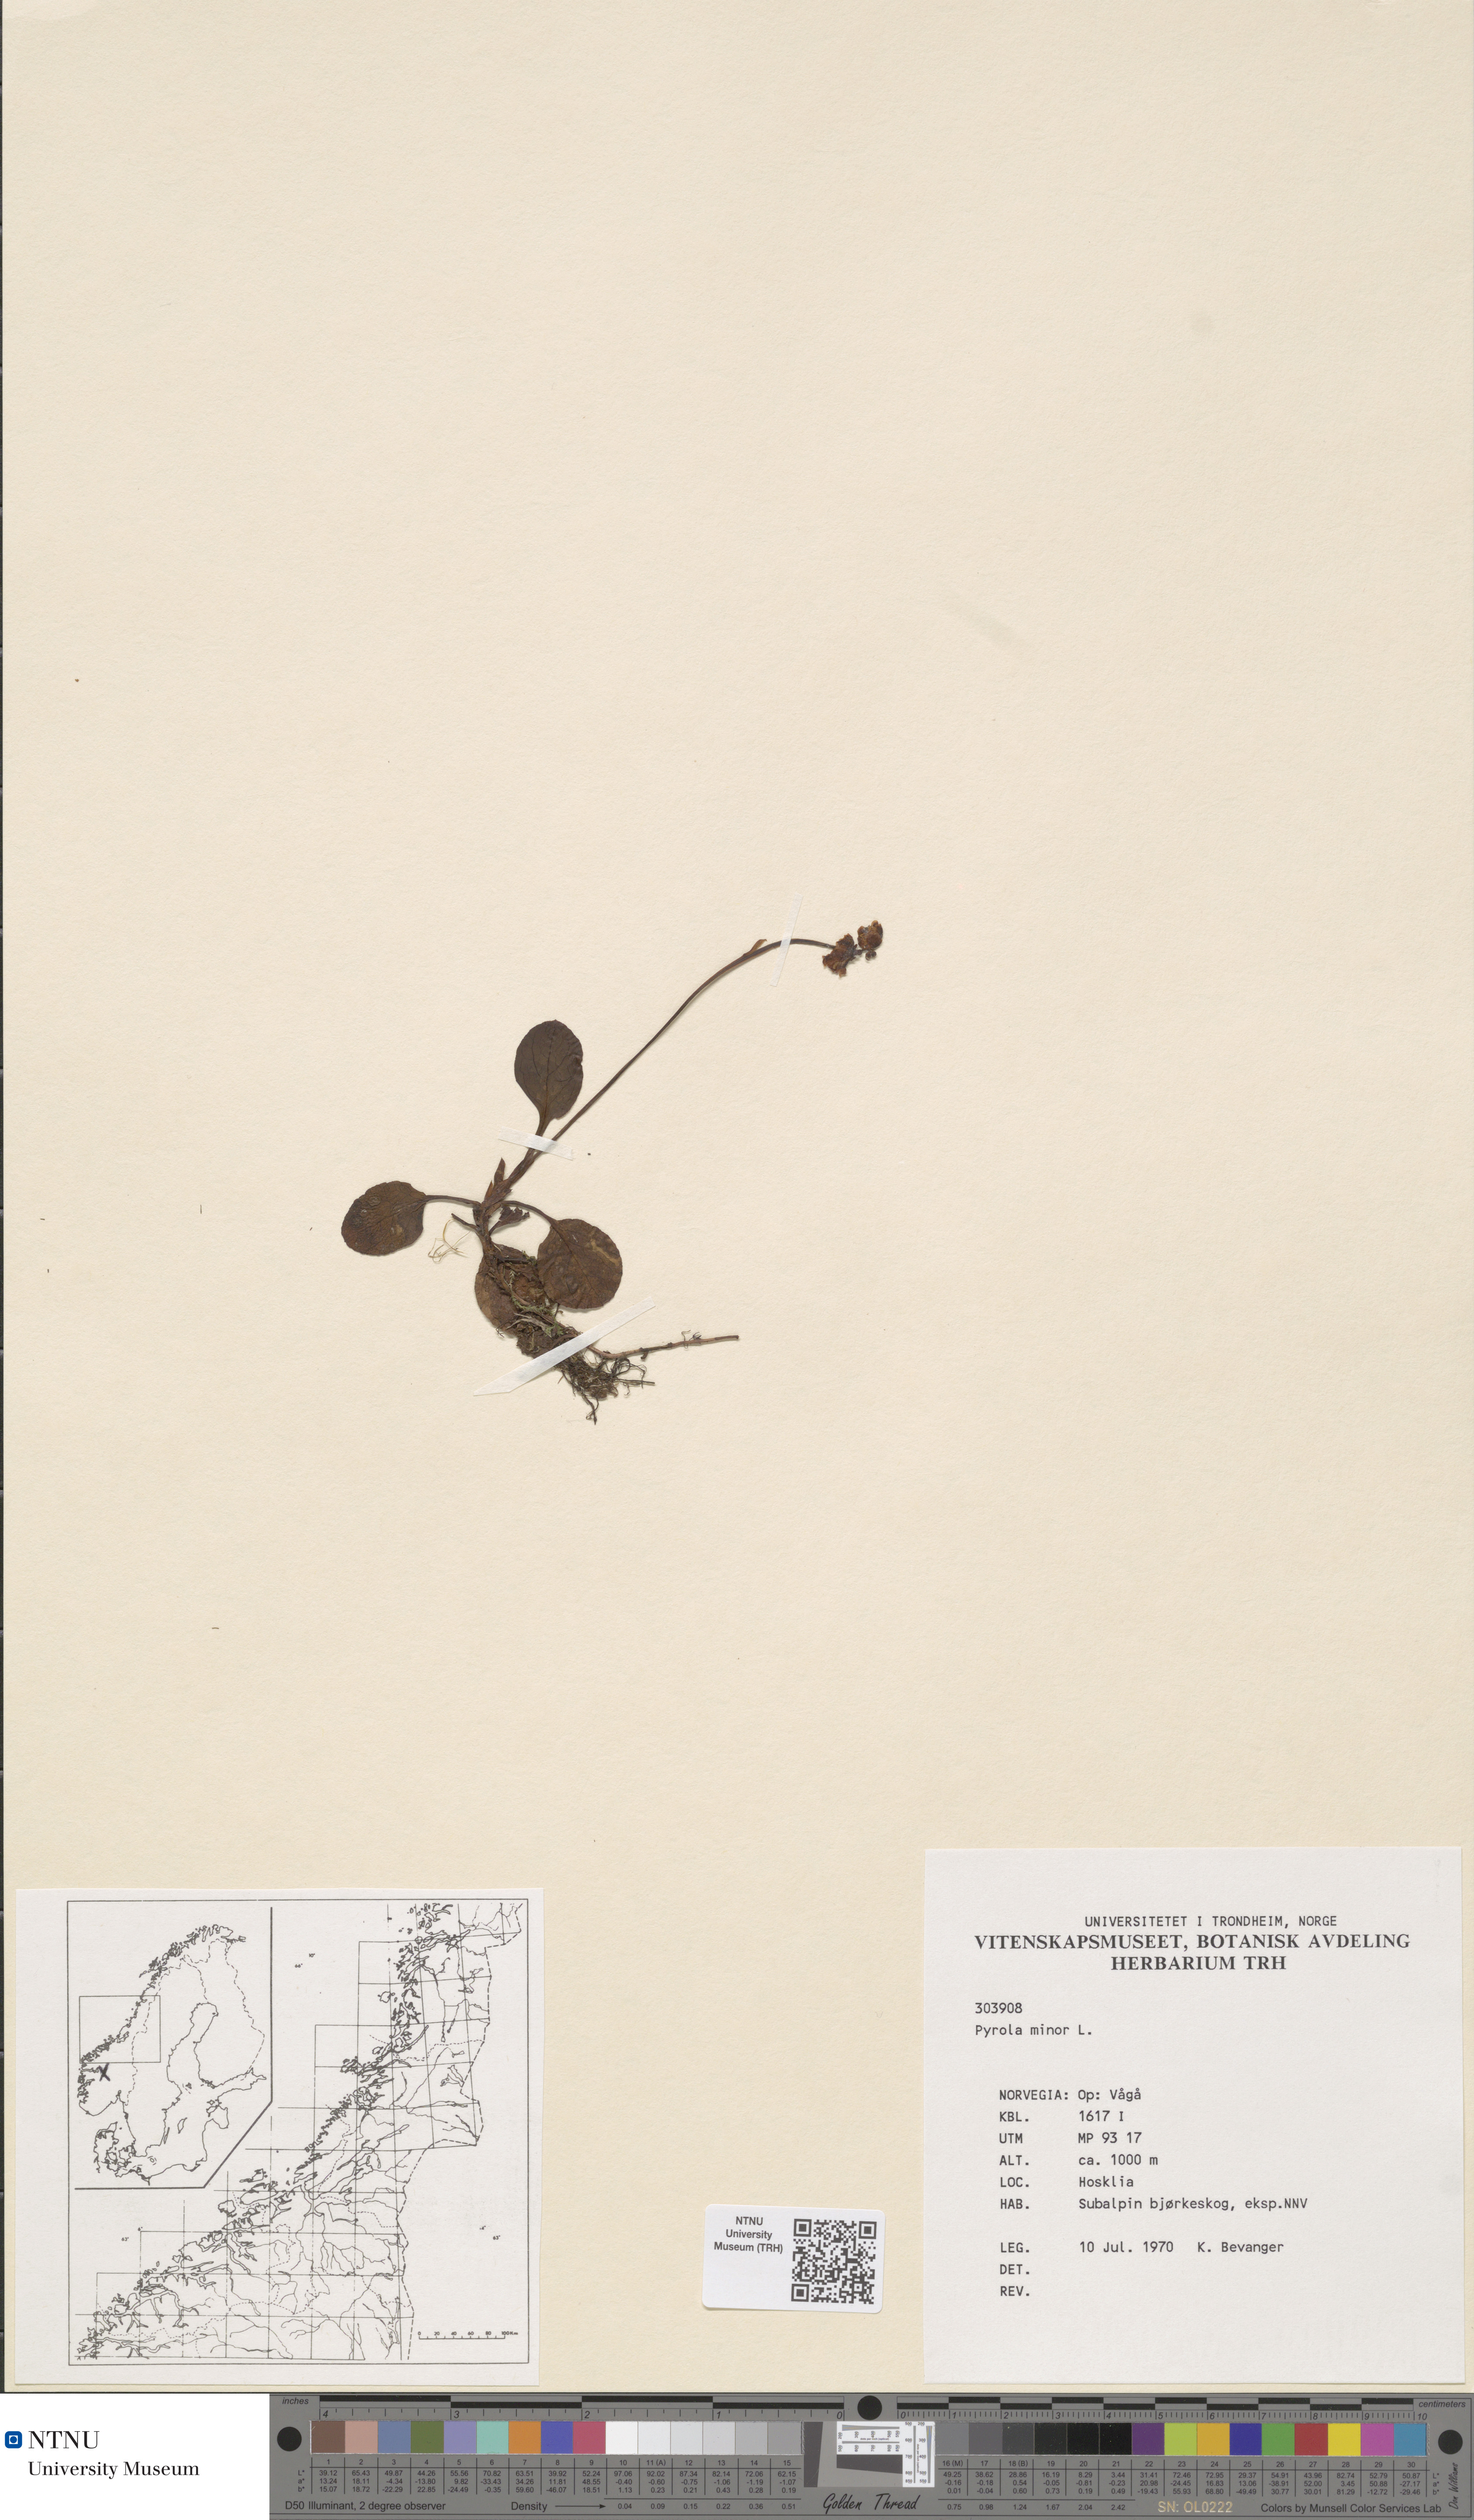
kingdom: Plantae
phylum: Tracheophyta
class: Magnoliopsida
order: Ericales
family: Ericaceae
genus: Pyrola
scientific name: Pyrola minor
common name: Common wintergreen
